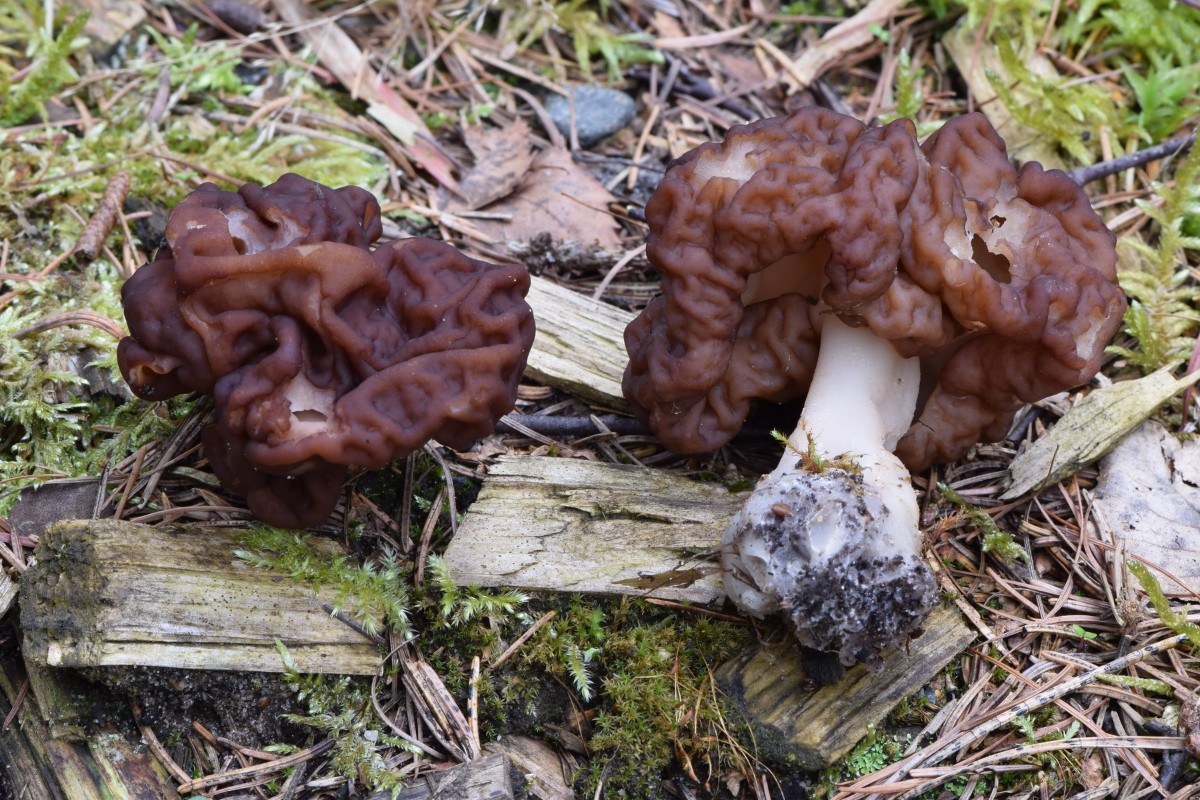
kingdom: Fungi
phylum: Ascomycota
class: Pezizomycetes
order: Pezizales
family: Discinaceae
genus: Gyromitra
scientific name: Gyromitra esculenta
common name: ægte stenmorkel
